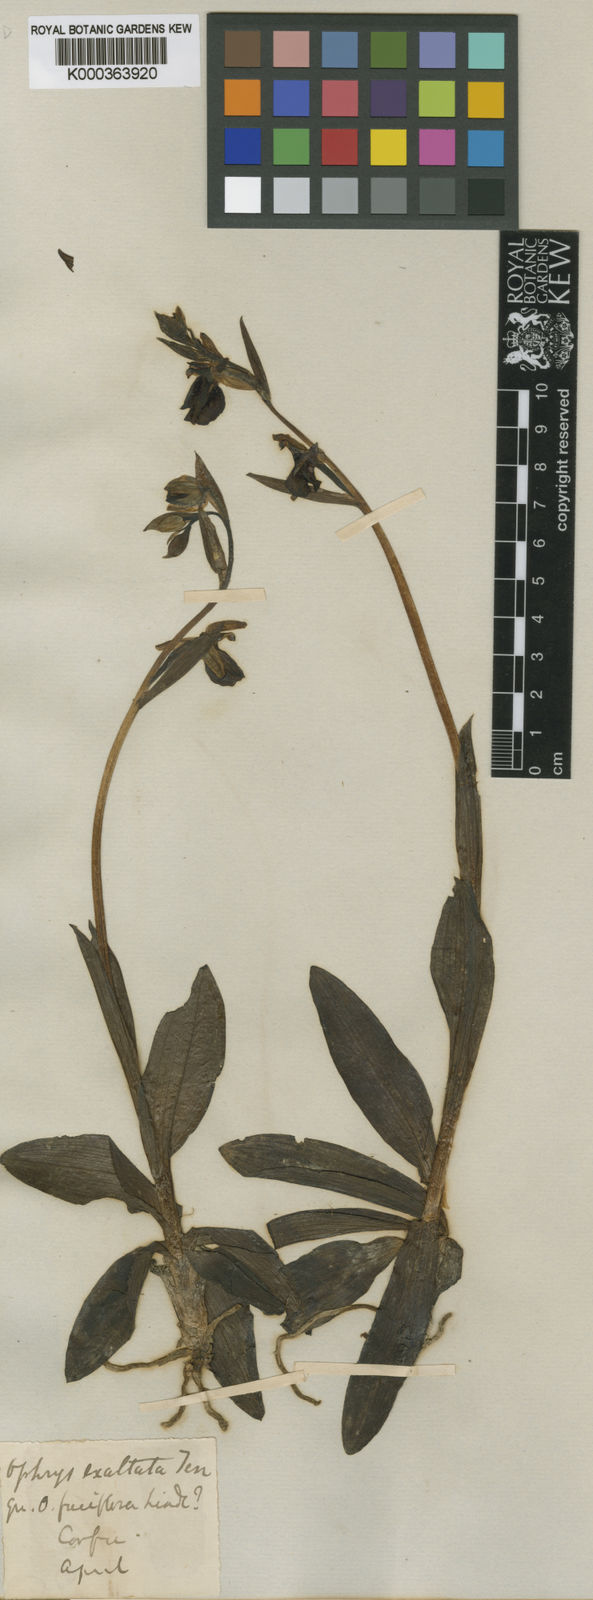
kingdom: Plantae
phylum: Tracheophyta
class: Liliopsida
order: Asparagales
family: Orchidaceae
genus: Ophrys
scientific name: Ophrys sphegodes
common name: Early spider-orchid
